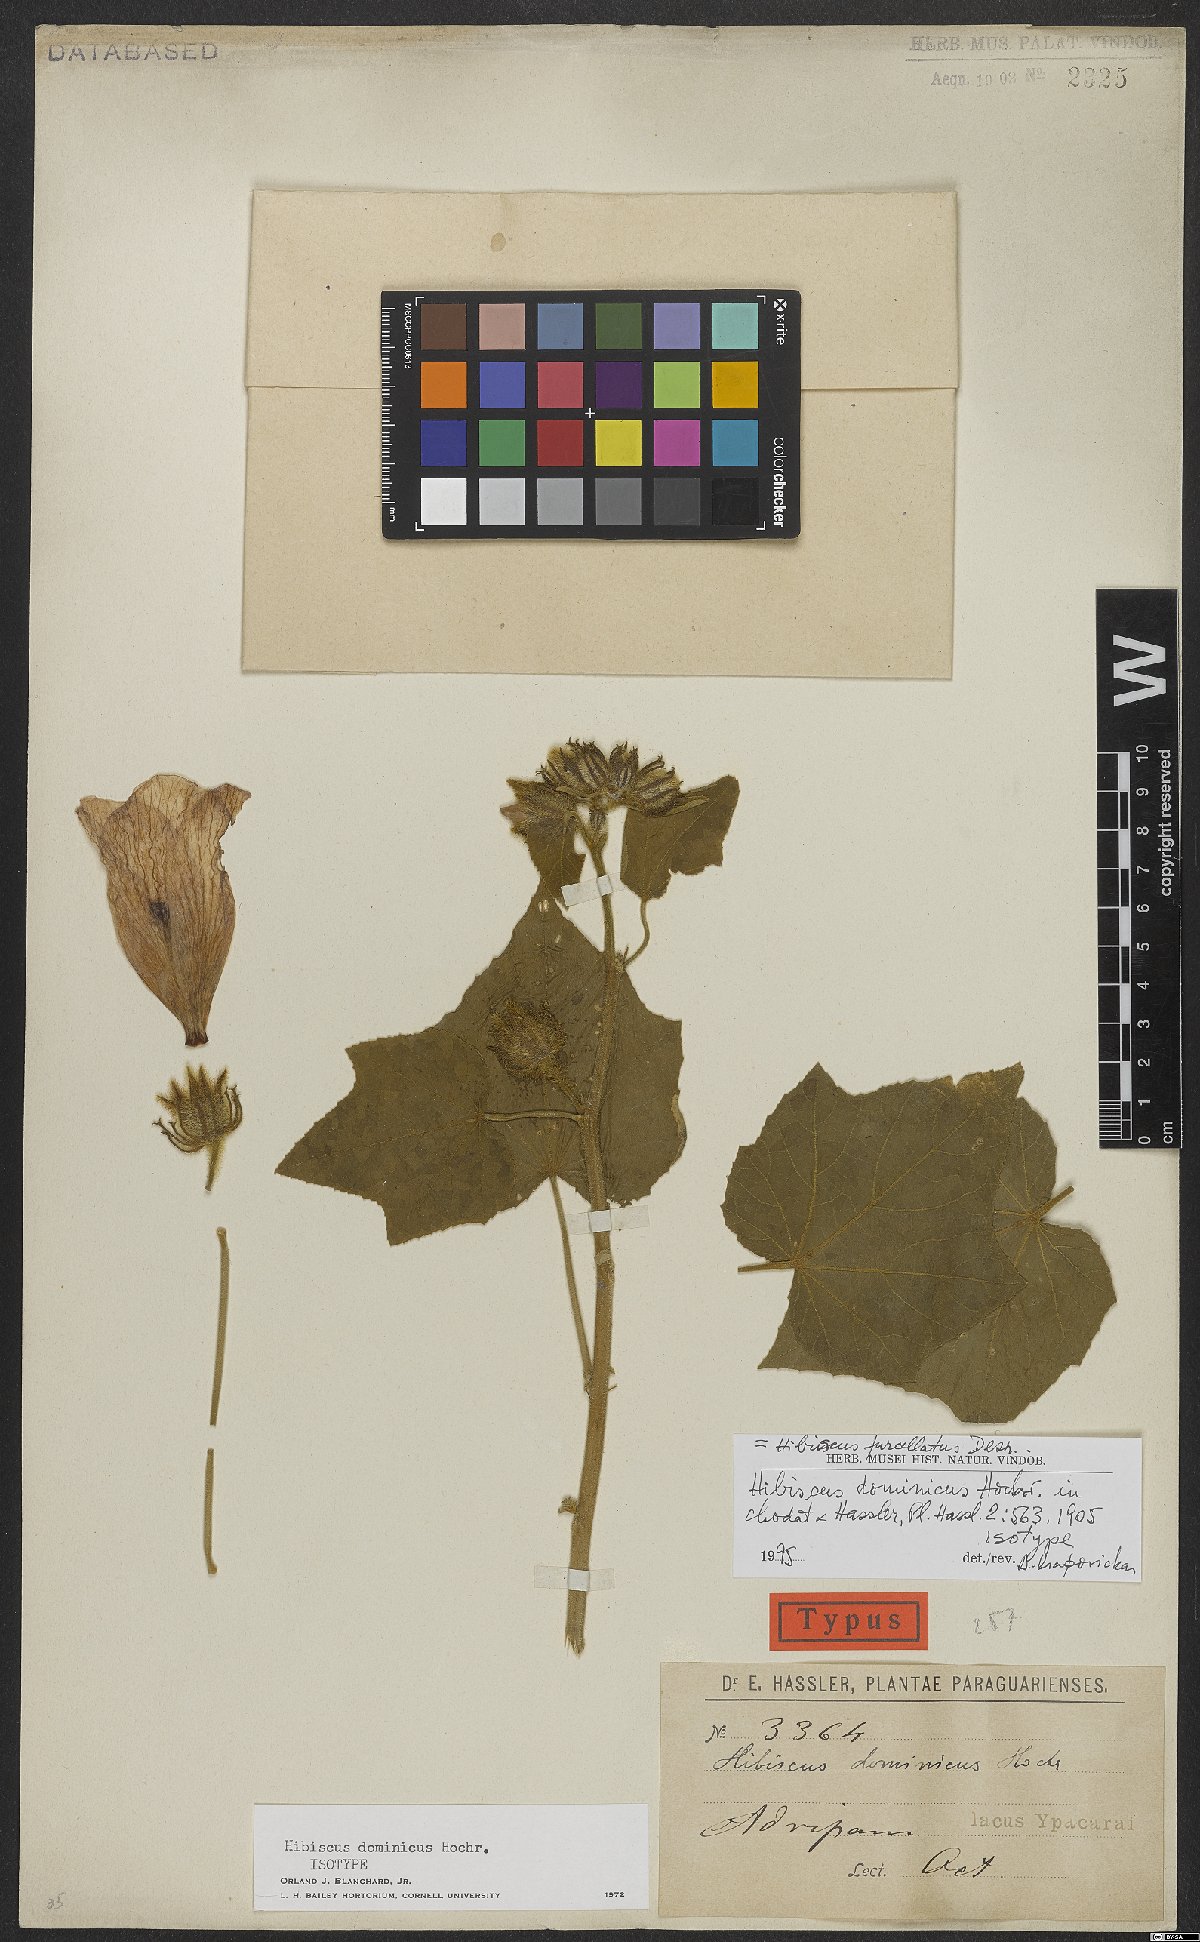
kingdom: Plantae
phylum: Tracheophyta
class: Magnoliopsida
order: Malvales
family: Malvaceae
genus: Hibiscus
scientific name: Hibiscus furcellatus
